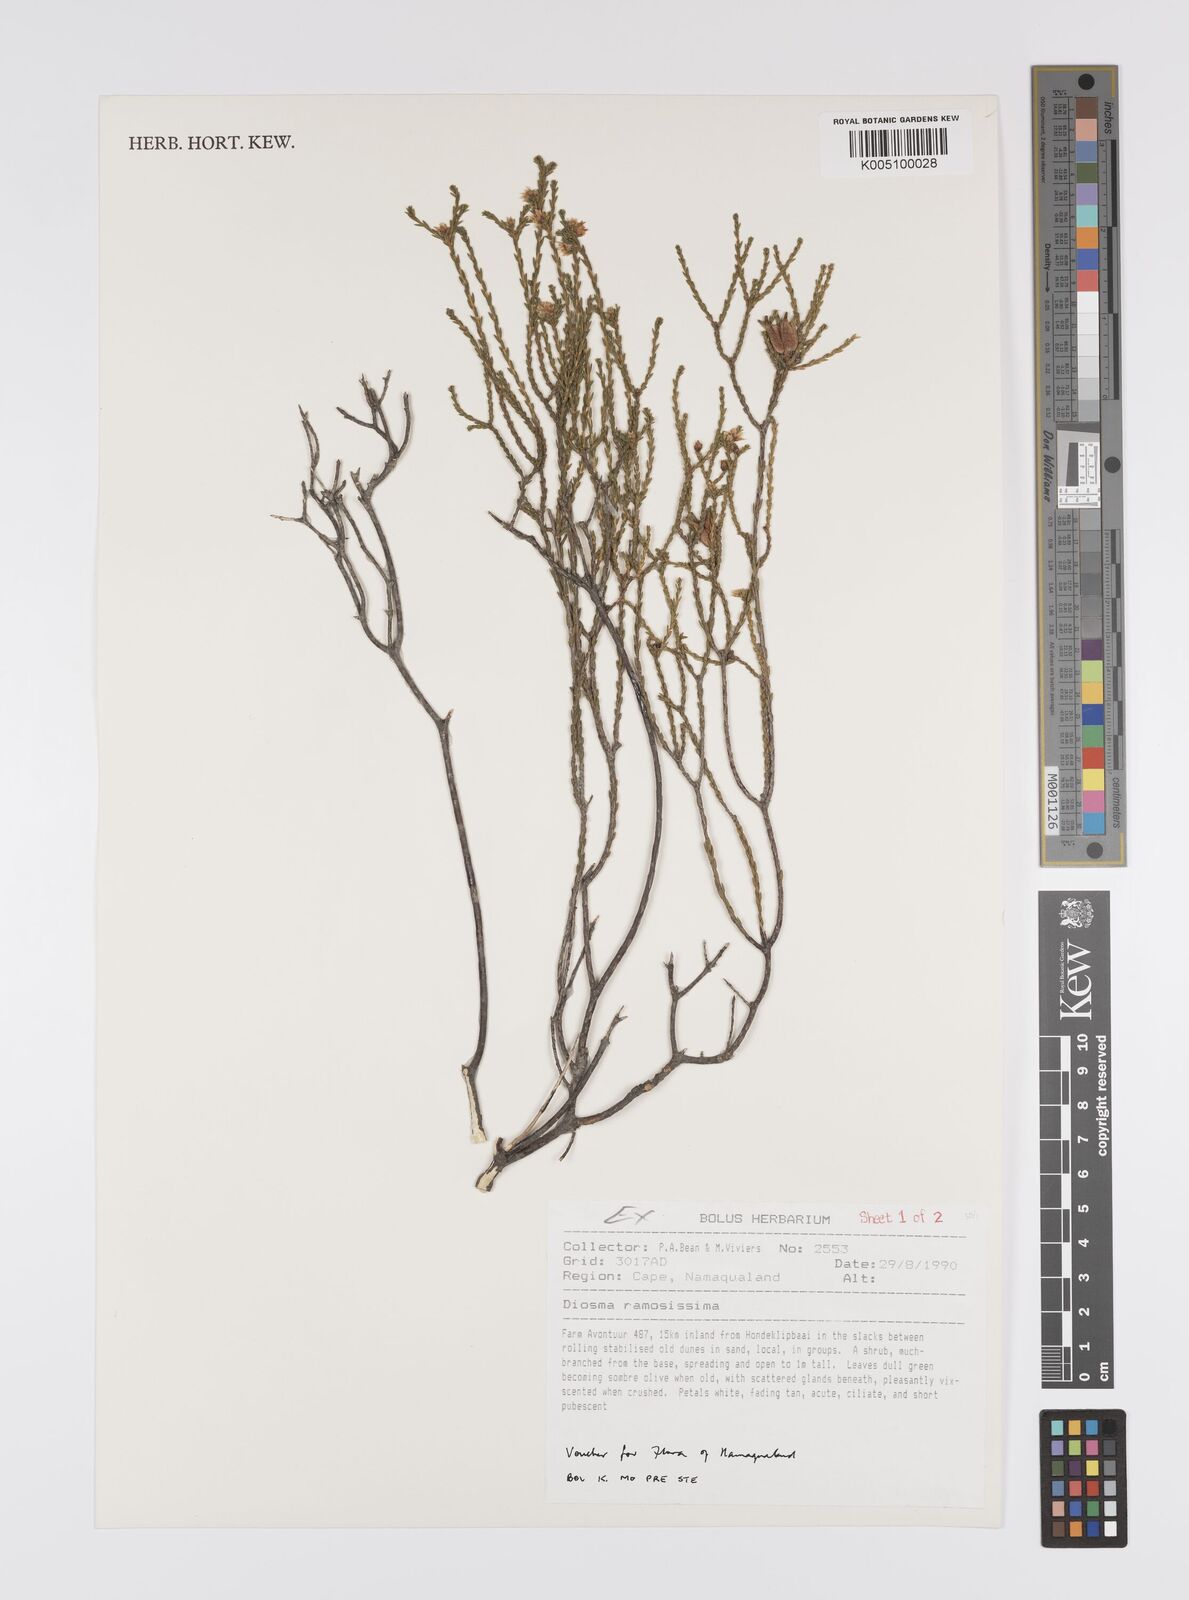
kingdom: Plantae
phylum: Tracheophyta
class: Magnoliopsida
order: Sapindales
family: Rutaceae
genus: Diosma
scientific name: Diosma ramosissima
